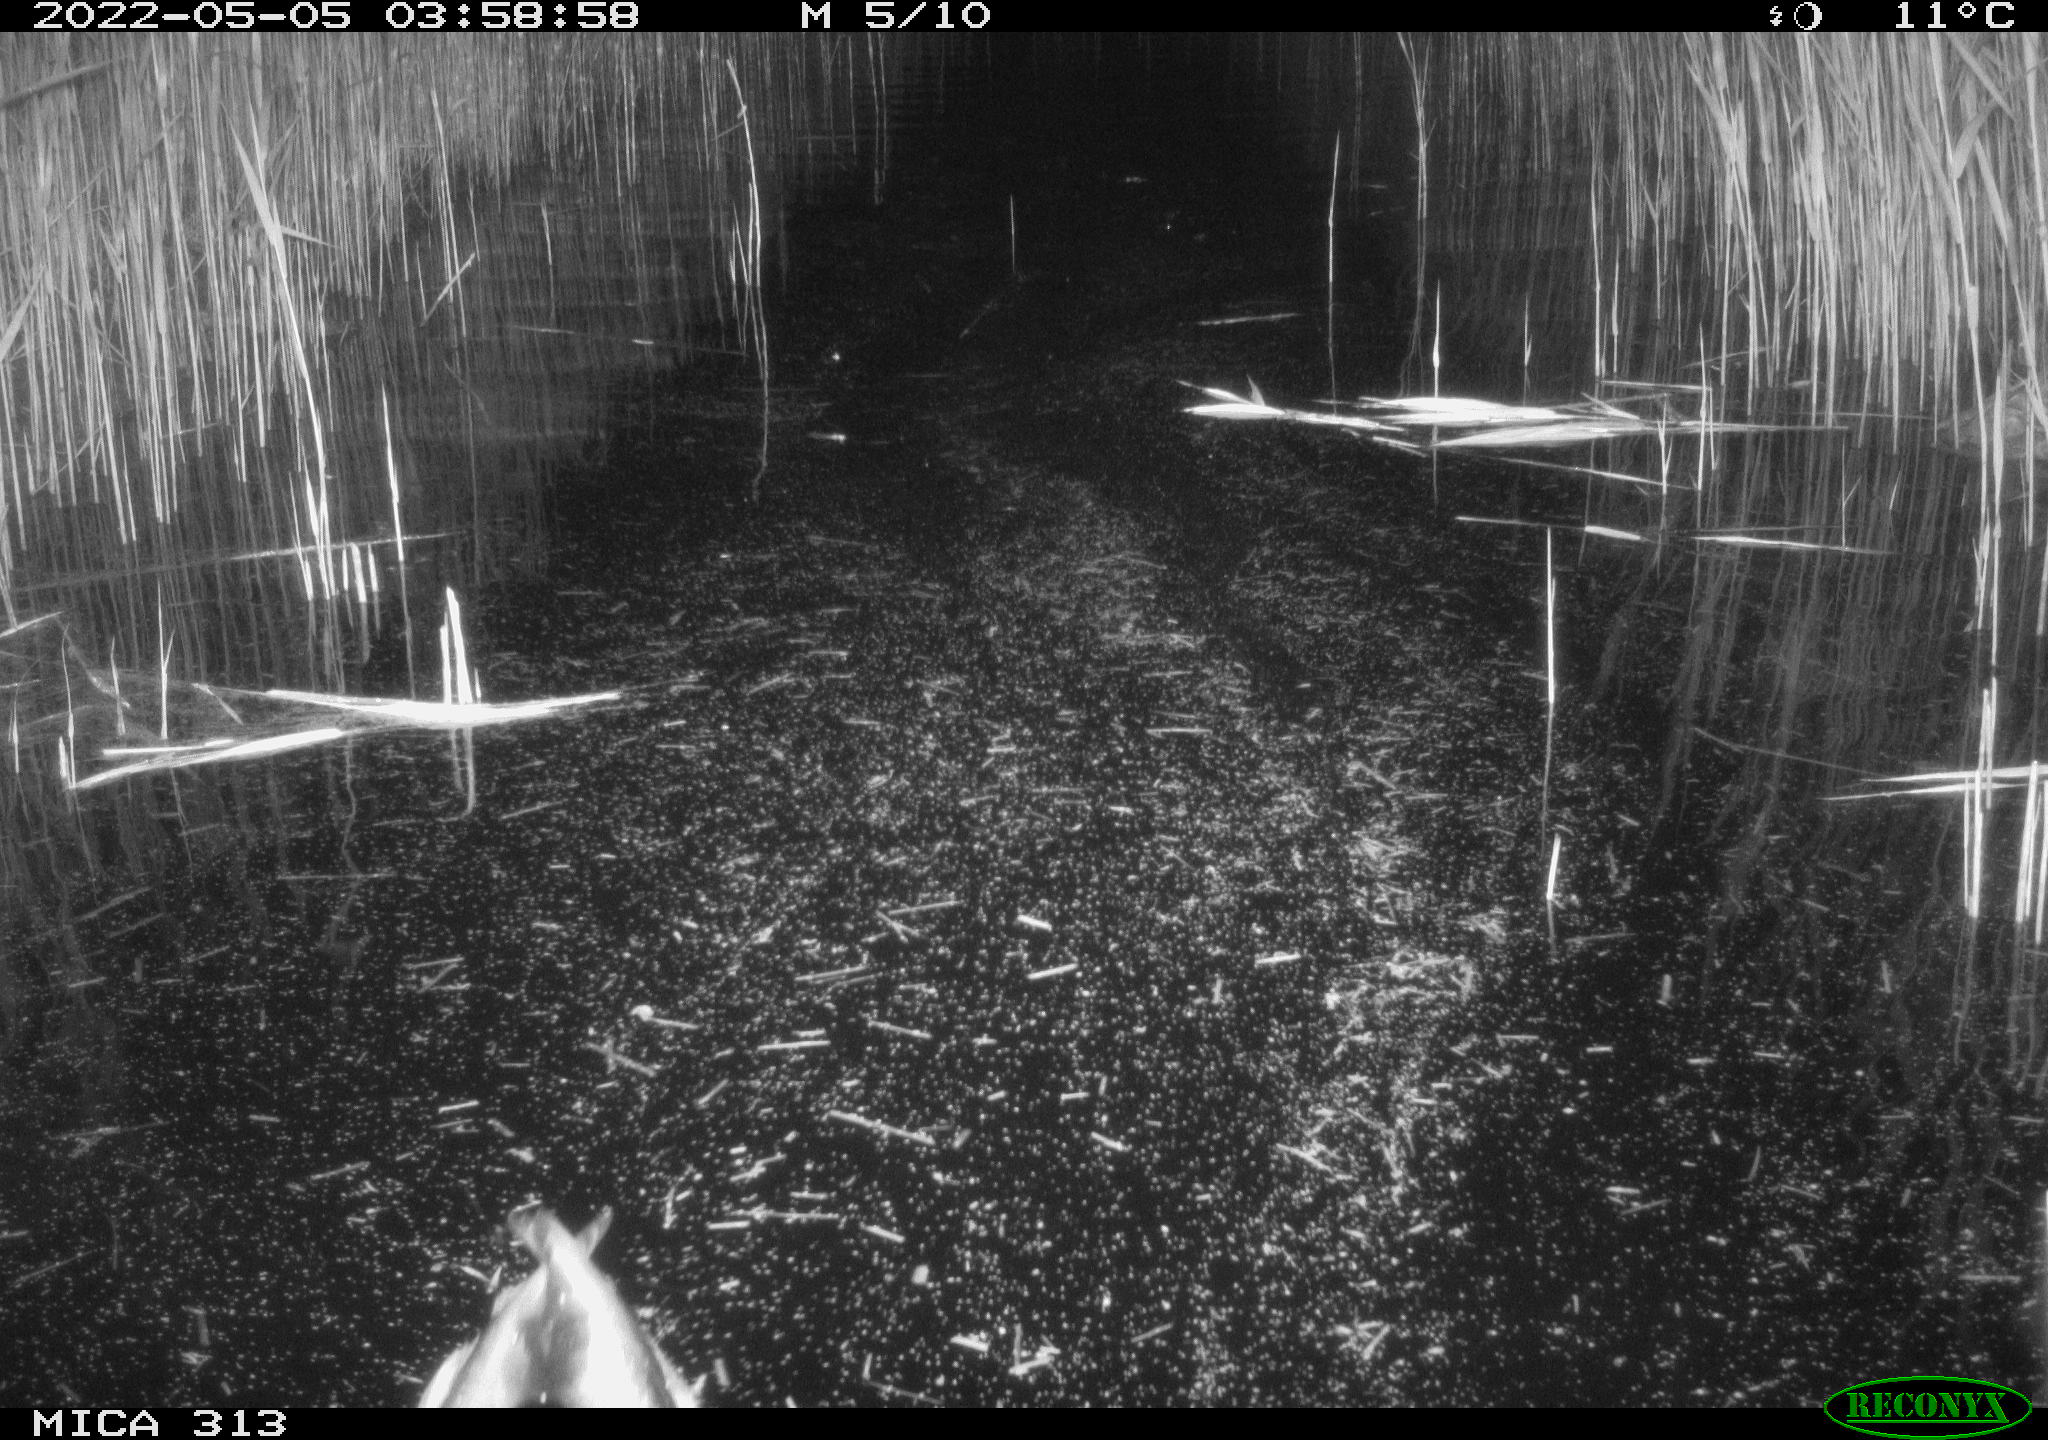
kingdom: Animalia
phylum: Chordata
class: Aves
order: Anseriformes
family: Anatidae
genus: Anas
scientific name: Anas platyrhynchos
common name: Mallard
